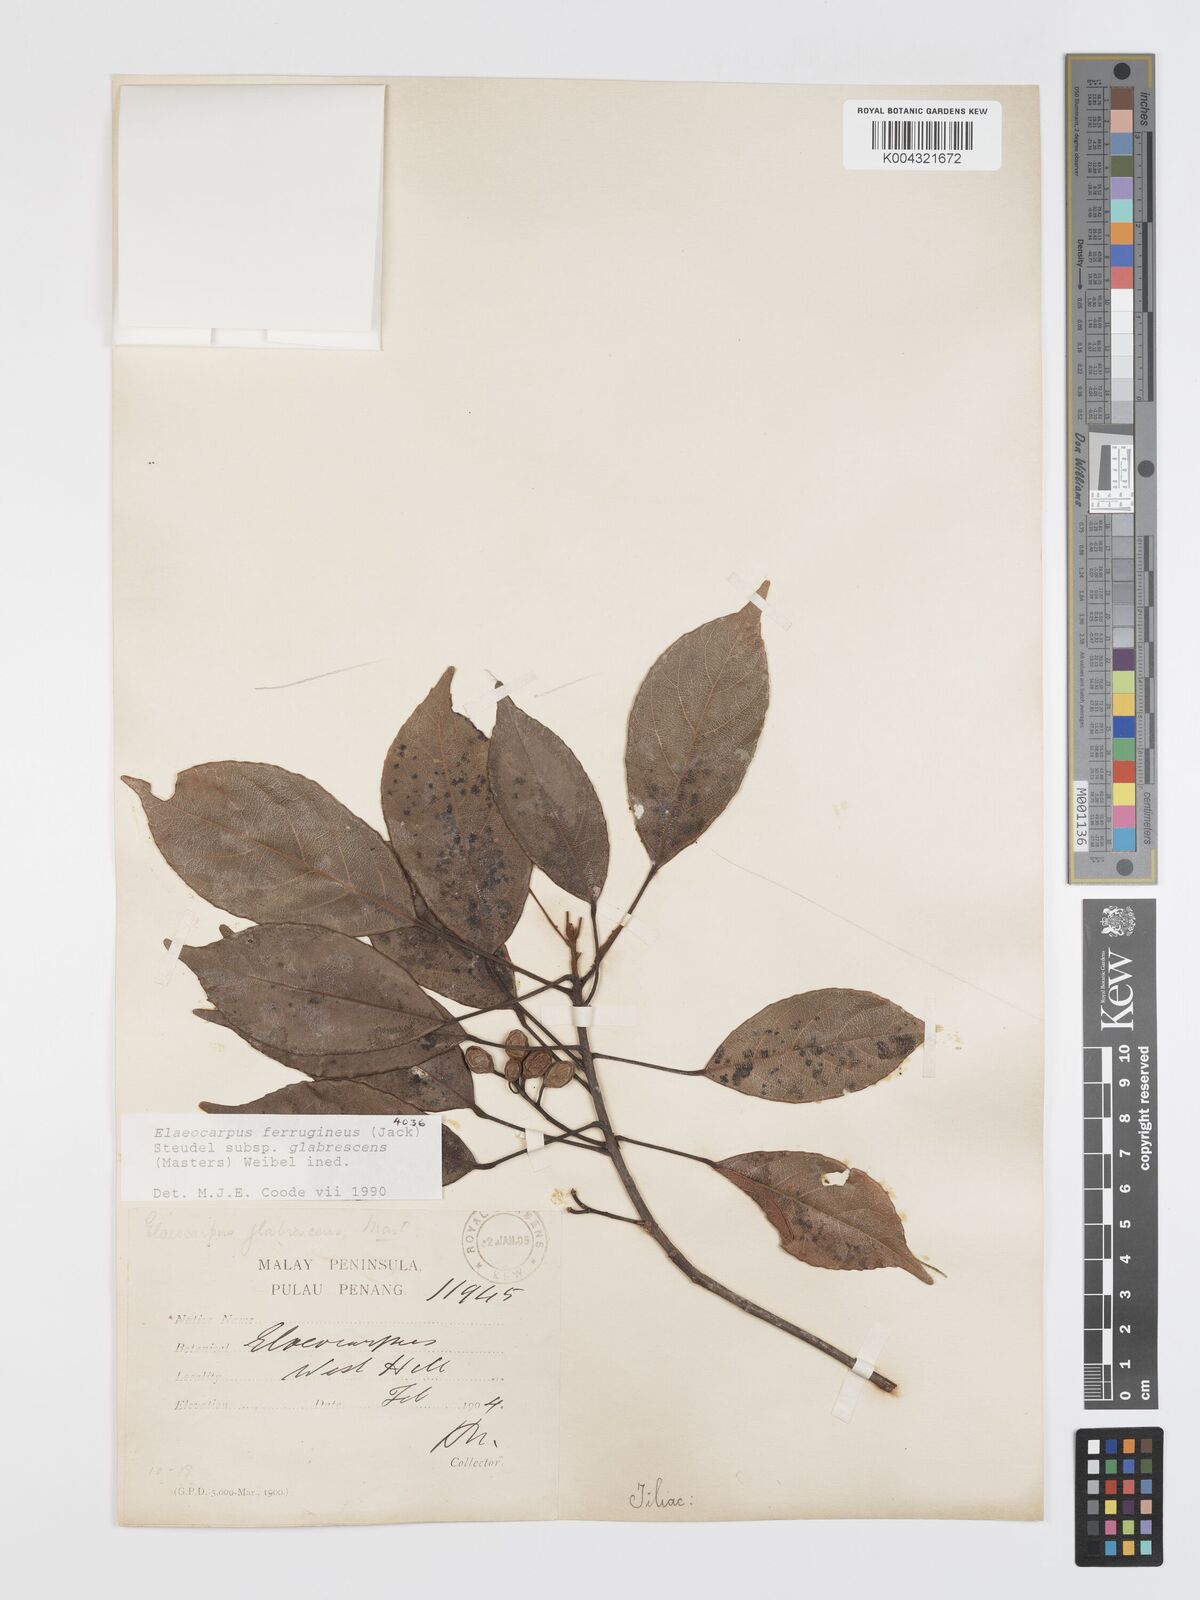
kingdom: Plantae
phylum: Tracheophyta
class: Magnoliopsida
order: Oxalidales
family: Elaeocarpaceae
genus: Elaeocarpus
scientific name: Elaeocarpus ferrugineus
